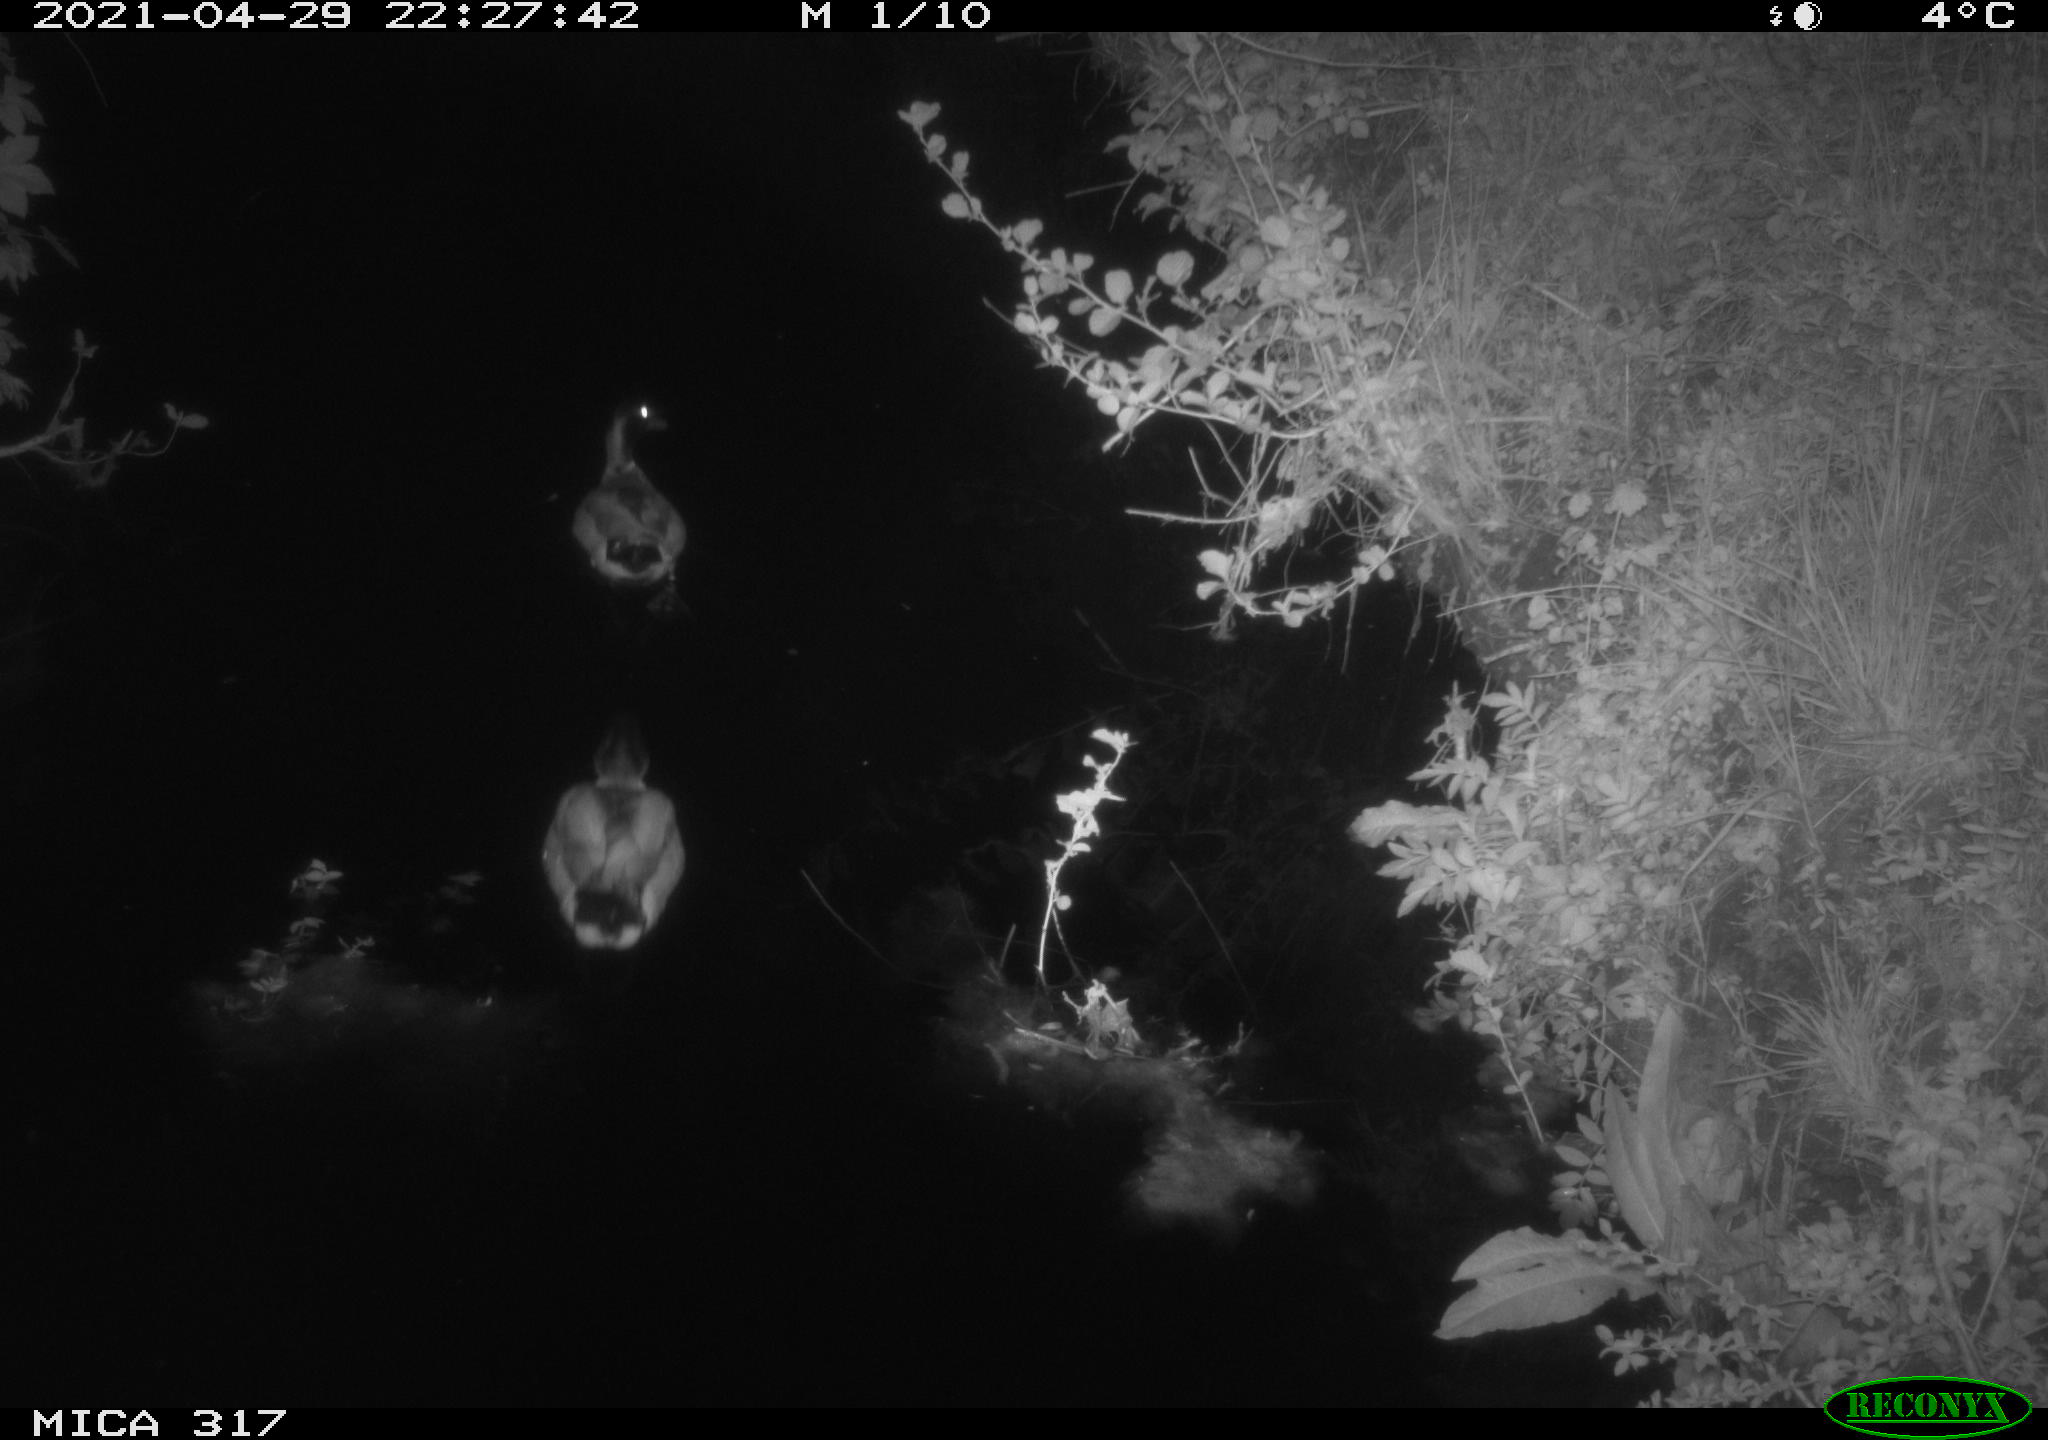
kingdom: Animalia
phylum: Chordata
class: Aves
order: Anseriformes
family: Anatidae
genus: Anas
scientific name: Anas
